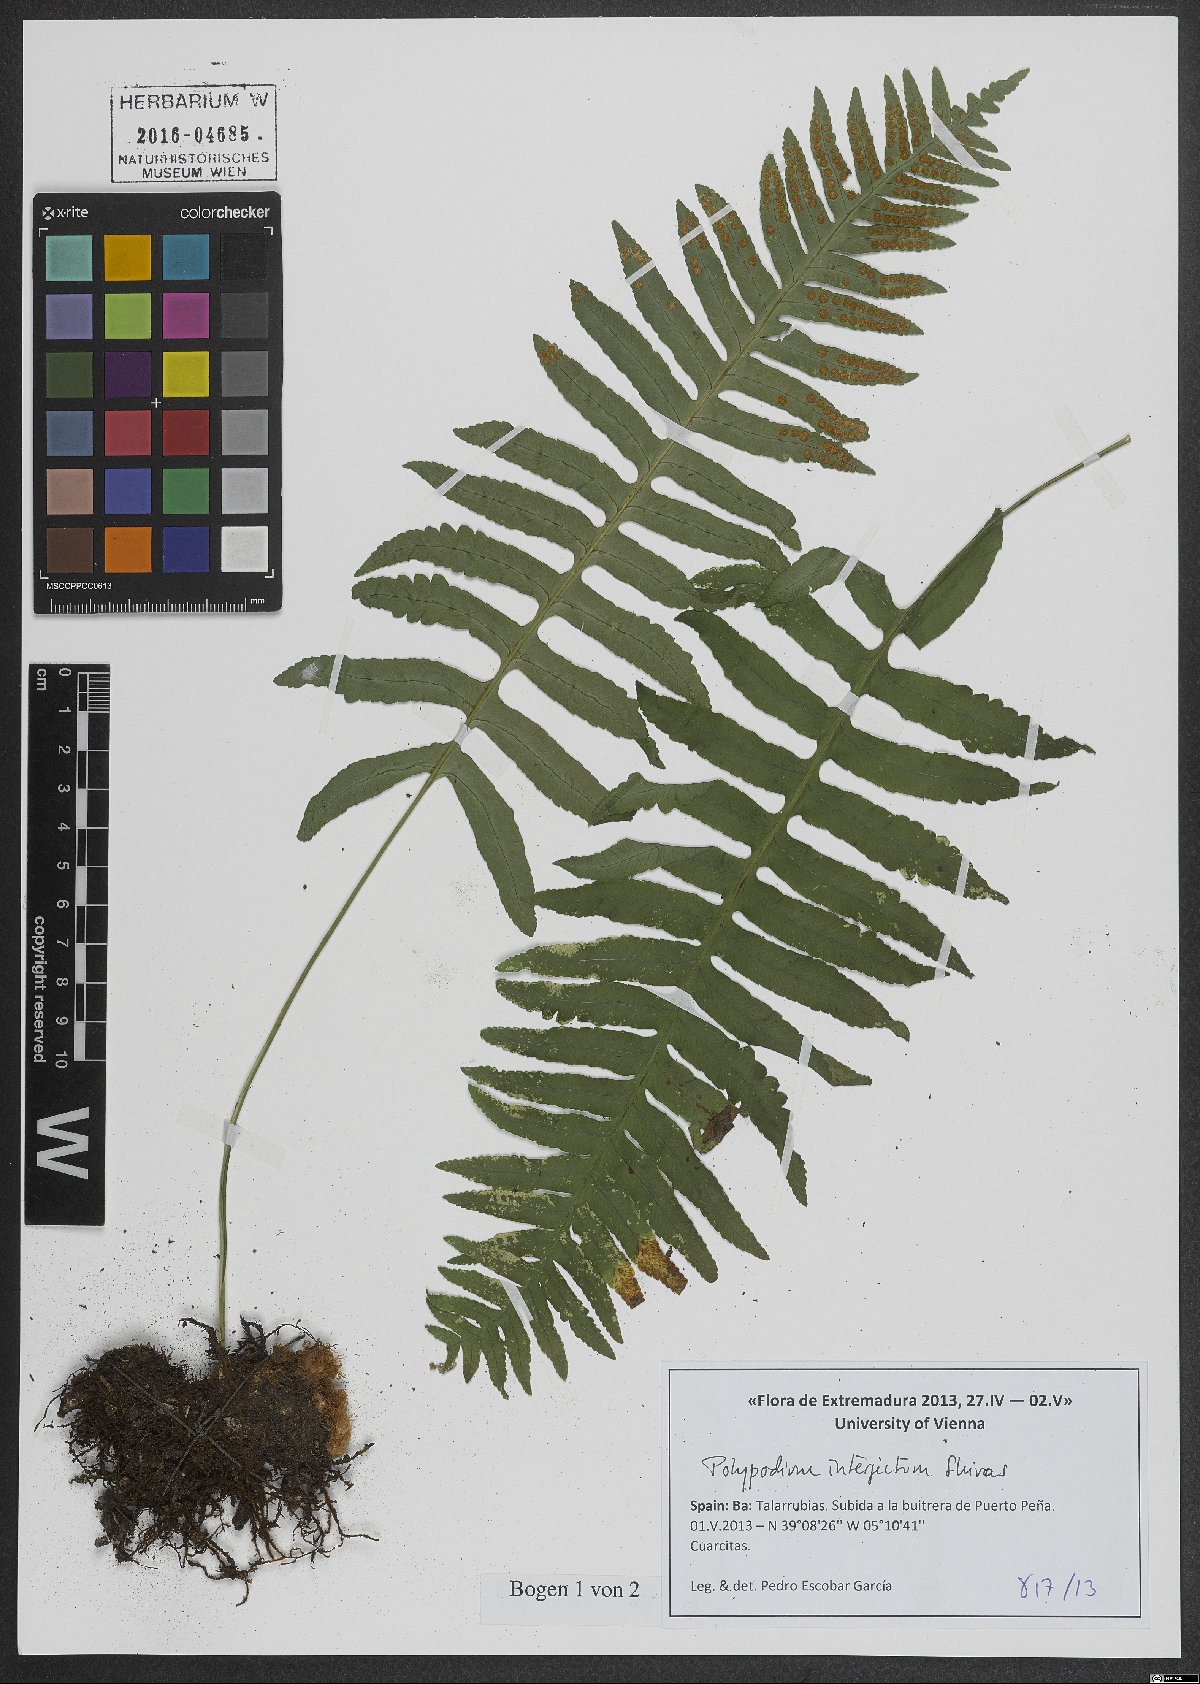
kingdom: Plantae
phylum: Tracheophyta
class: Polypodiopsida
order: Polypodiales
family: Polypodiaceae
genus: Polypodium
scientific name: Polypodium interjectum
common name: Intermediate polypody
